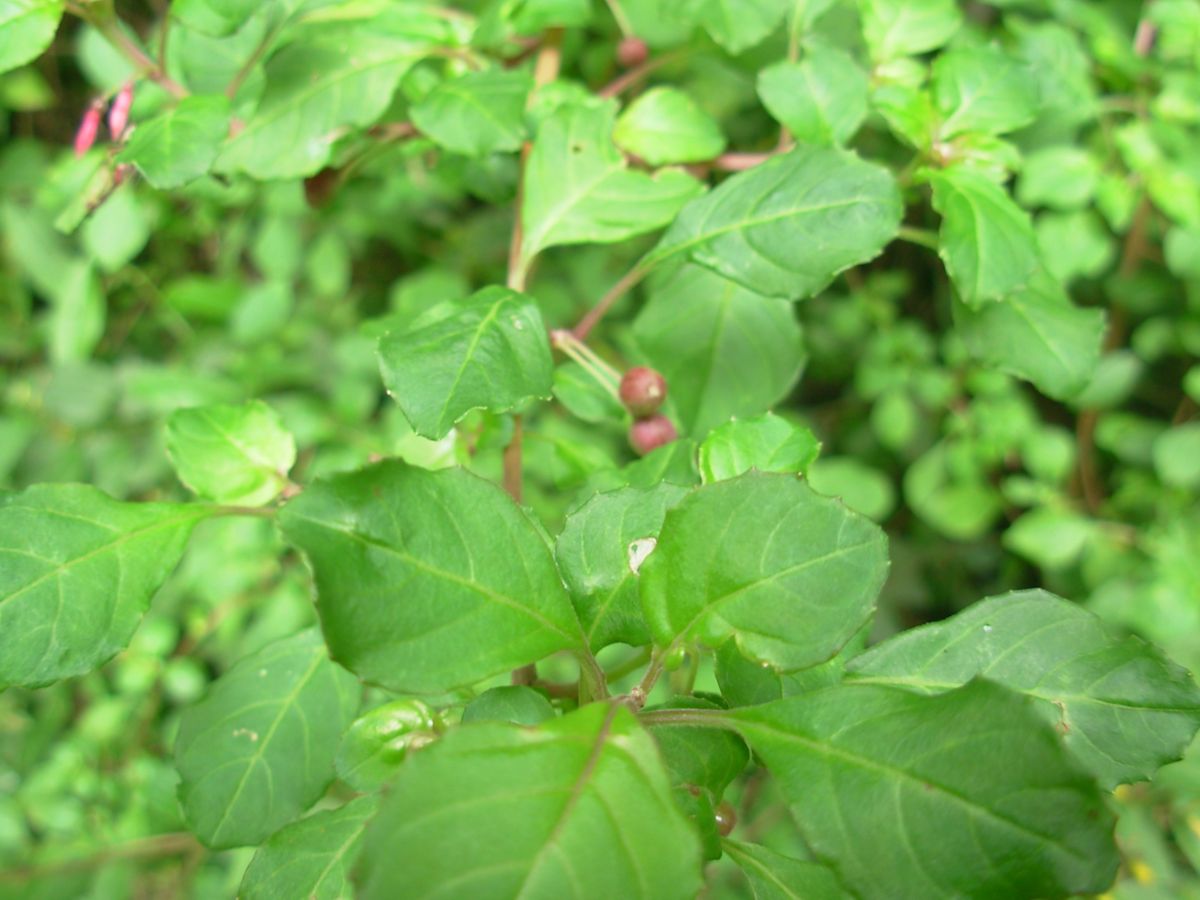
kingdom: Plantae
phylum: Tracheophyta
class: Magnoliopsida
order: Myrtales
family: Onagraceae
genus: Fuchsia
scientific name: Fuchsia microphylla
